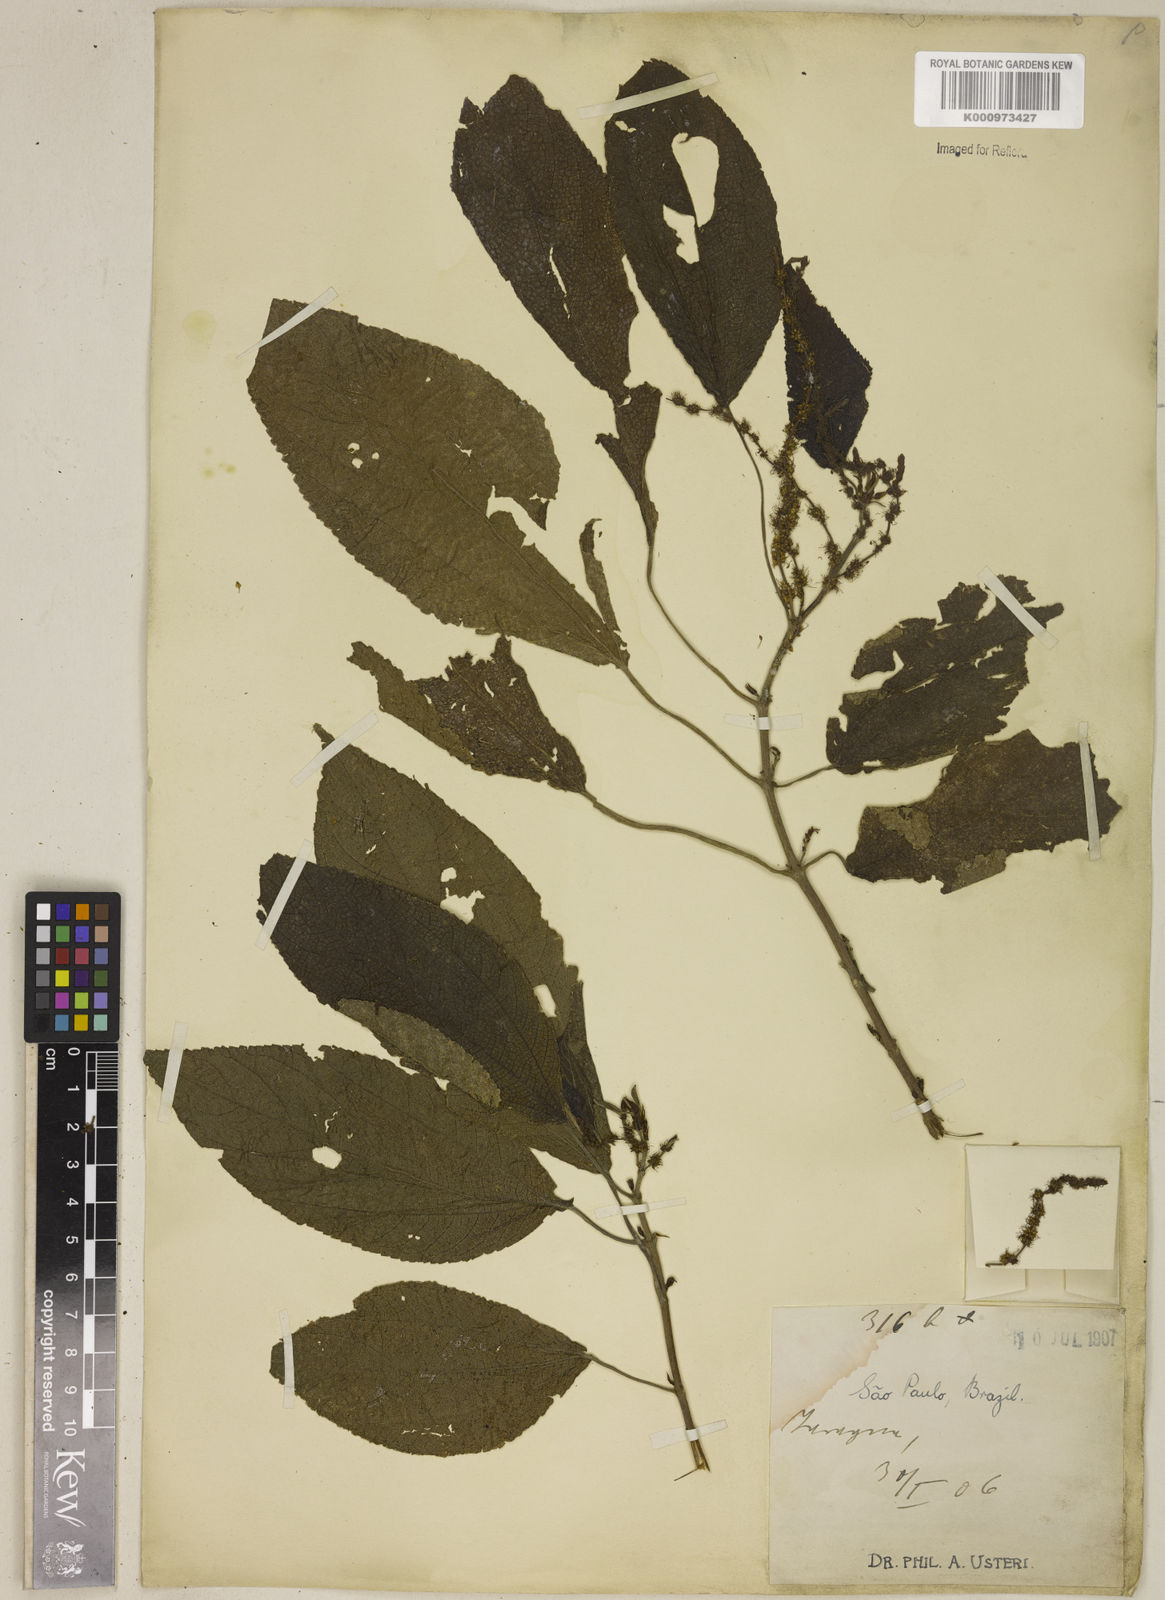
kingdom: Plantae
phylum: Tracheophyta
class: Magnoliopsida
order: Rosales
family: Urticaceae
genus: Boehmeria
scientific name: Boehmeria caudata
